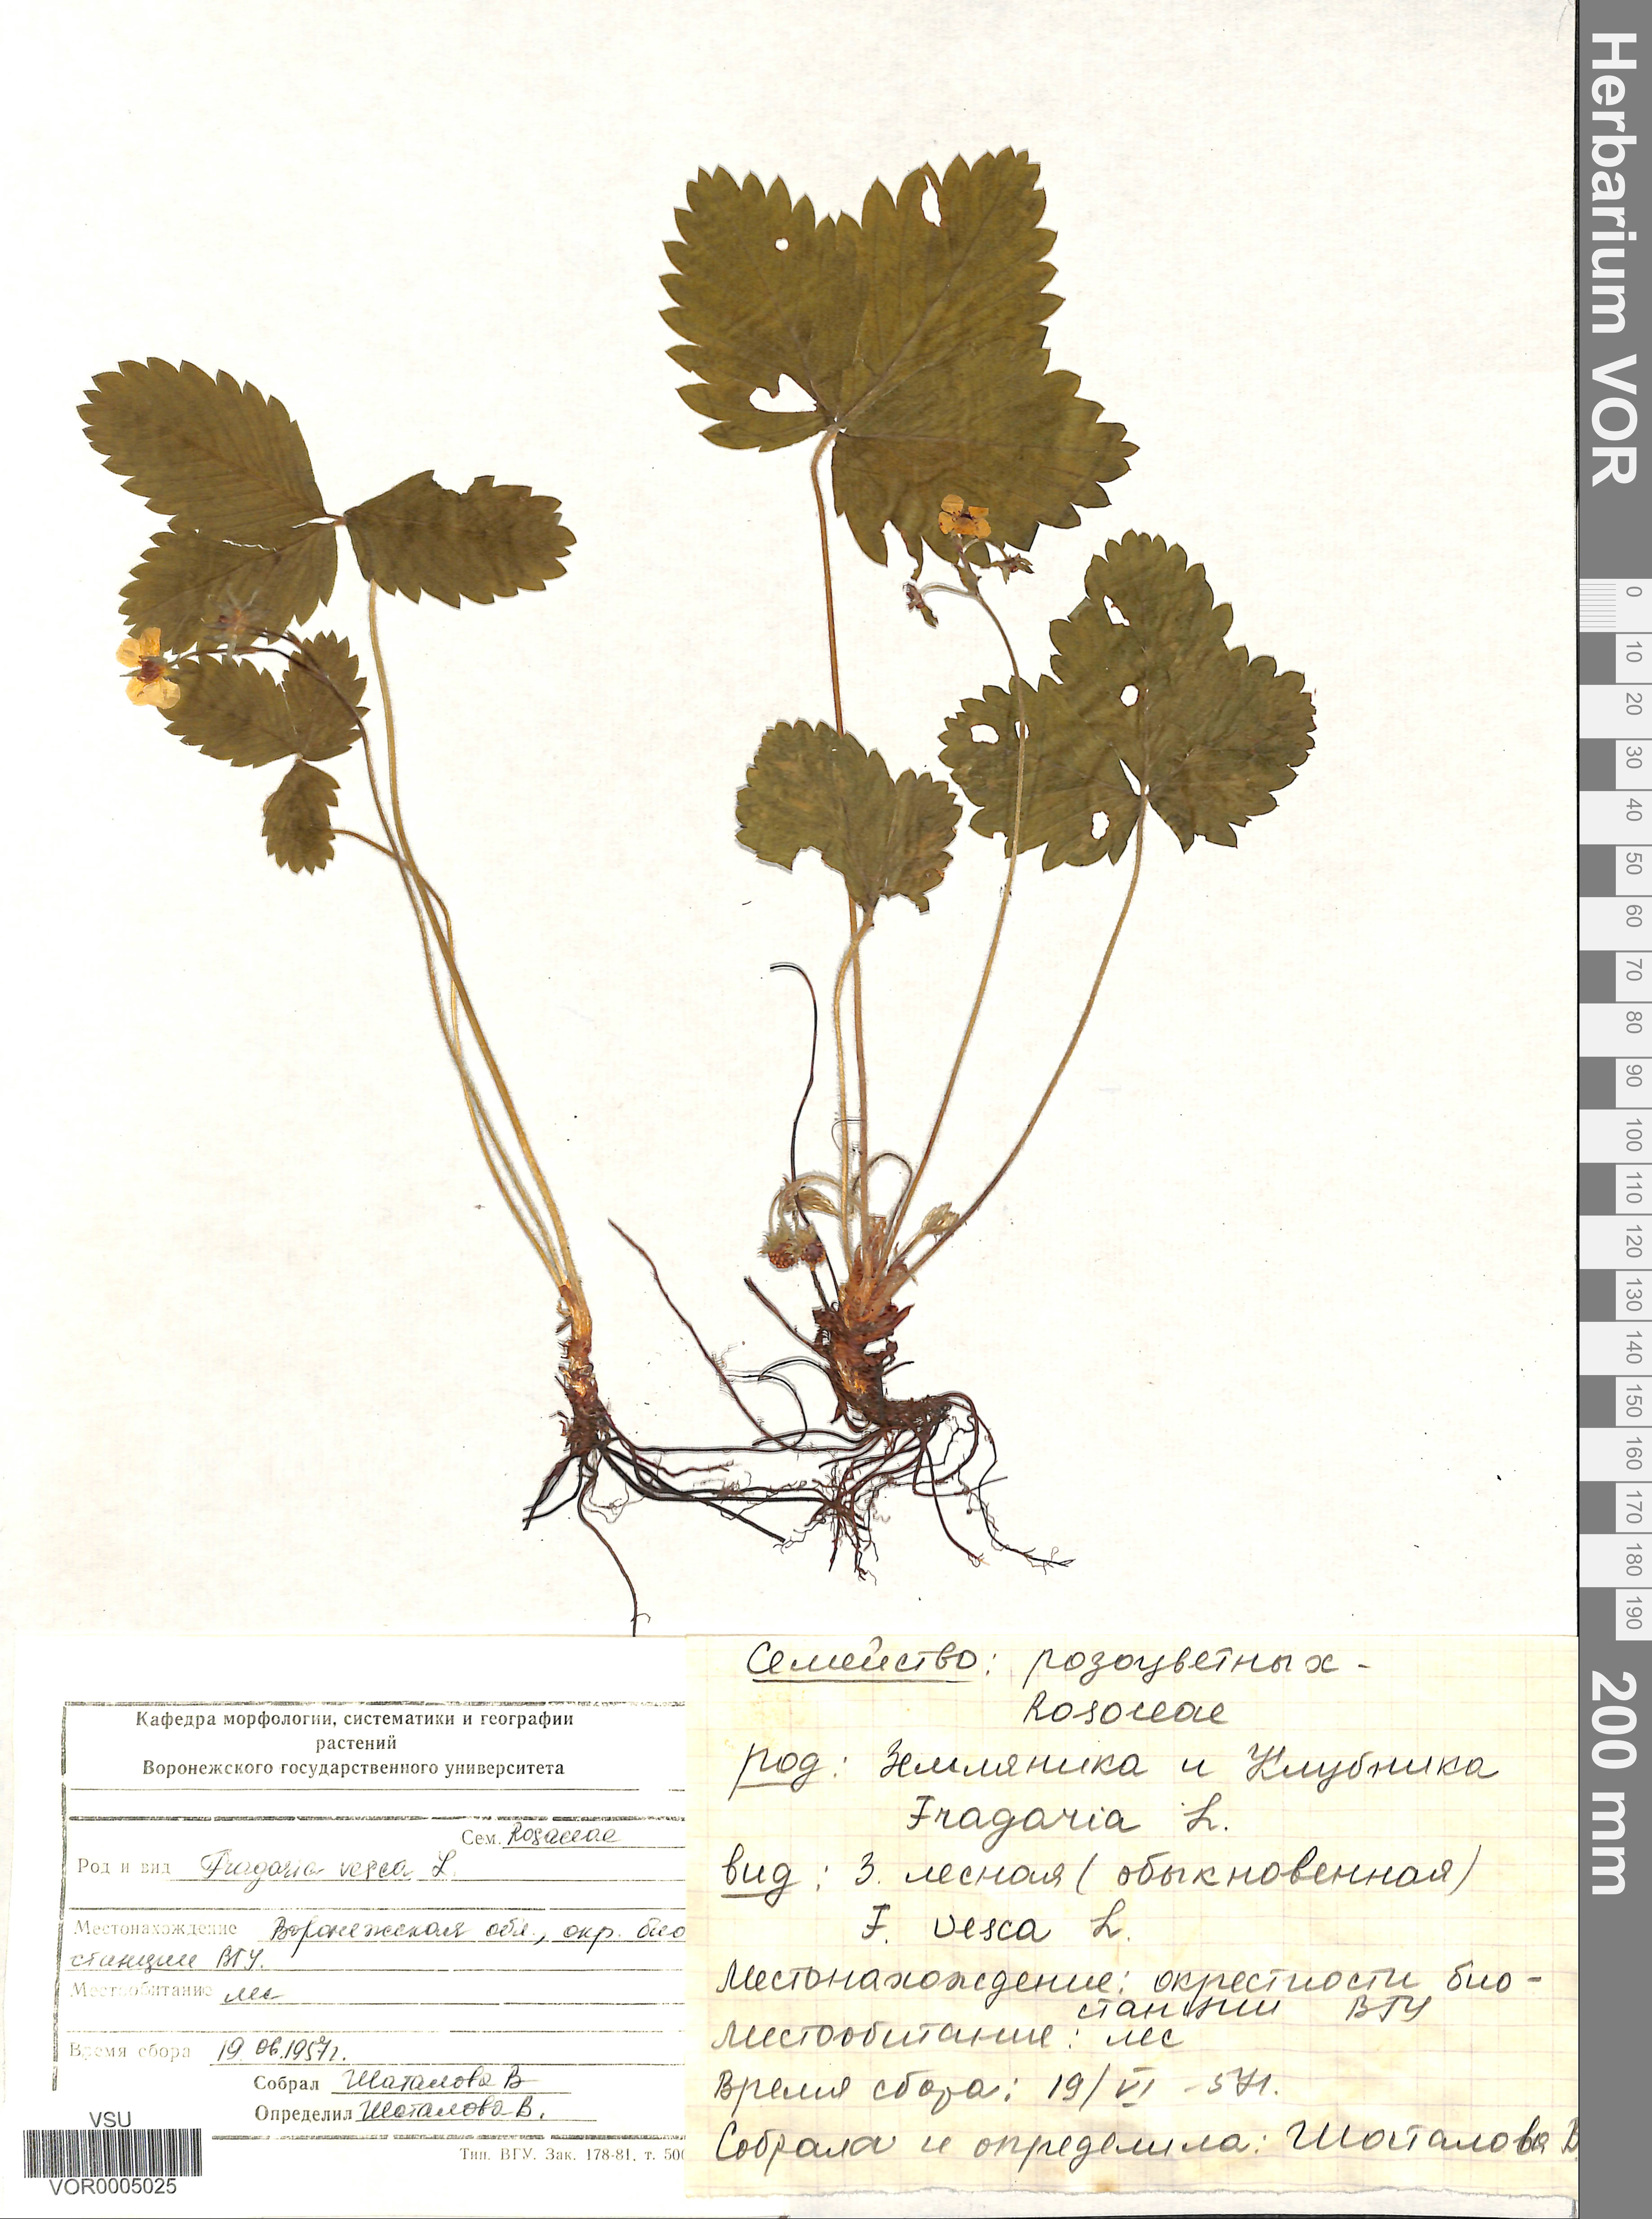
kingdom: Plantae
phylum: Tracheophyta
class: Magnoliopsida
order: Rosales
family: Rosaceae
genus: Fragaria
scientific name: Fragaria vesca
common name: Wild strawberry
